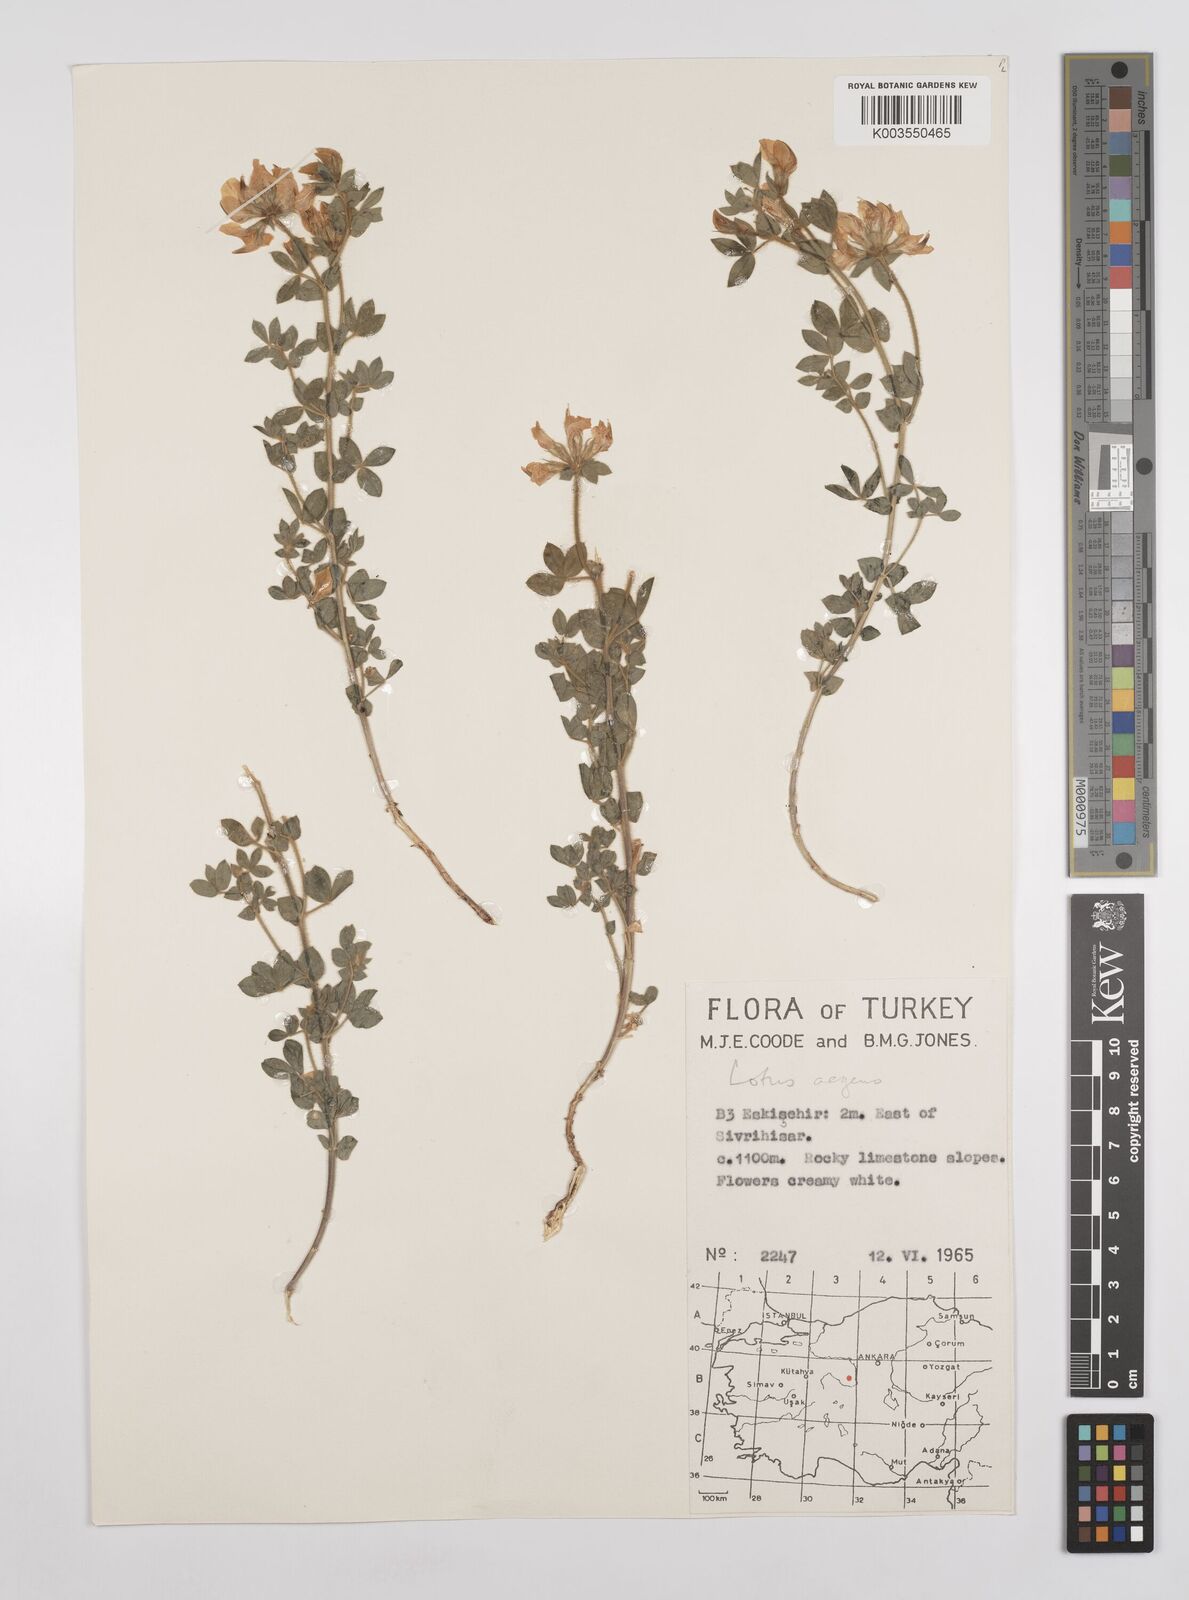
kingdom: Plantae
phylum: Tracheophyta
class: Magnoliopsida
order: Fabales
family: Fabaceae
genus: Lotus
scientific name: Lotus aegaeus
